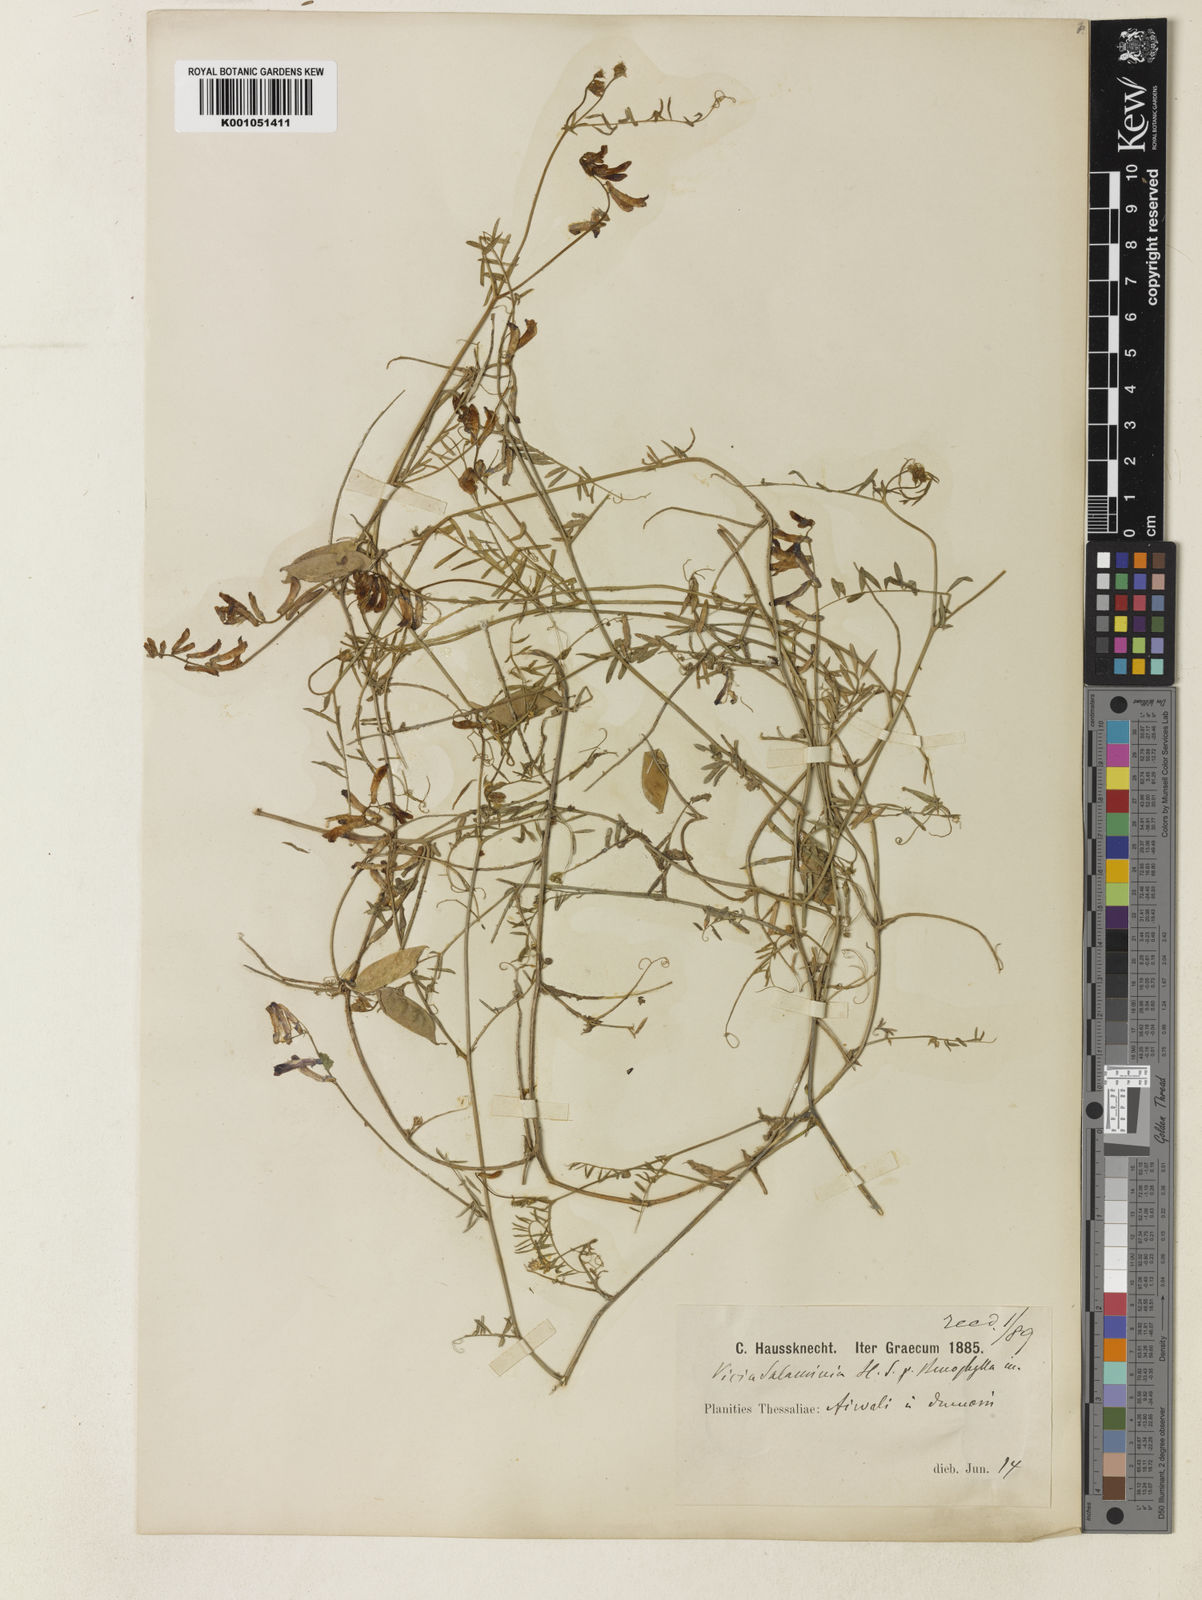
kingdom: Plantae
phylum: Tracheophyta
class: Magnoliopsida
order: Fabales
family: Fabaceae
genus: Vicia
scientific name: Vicia eriocarpa
